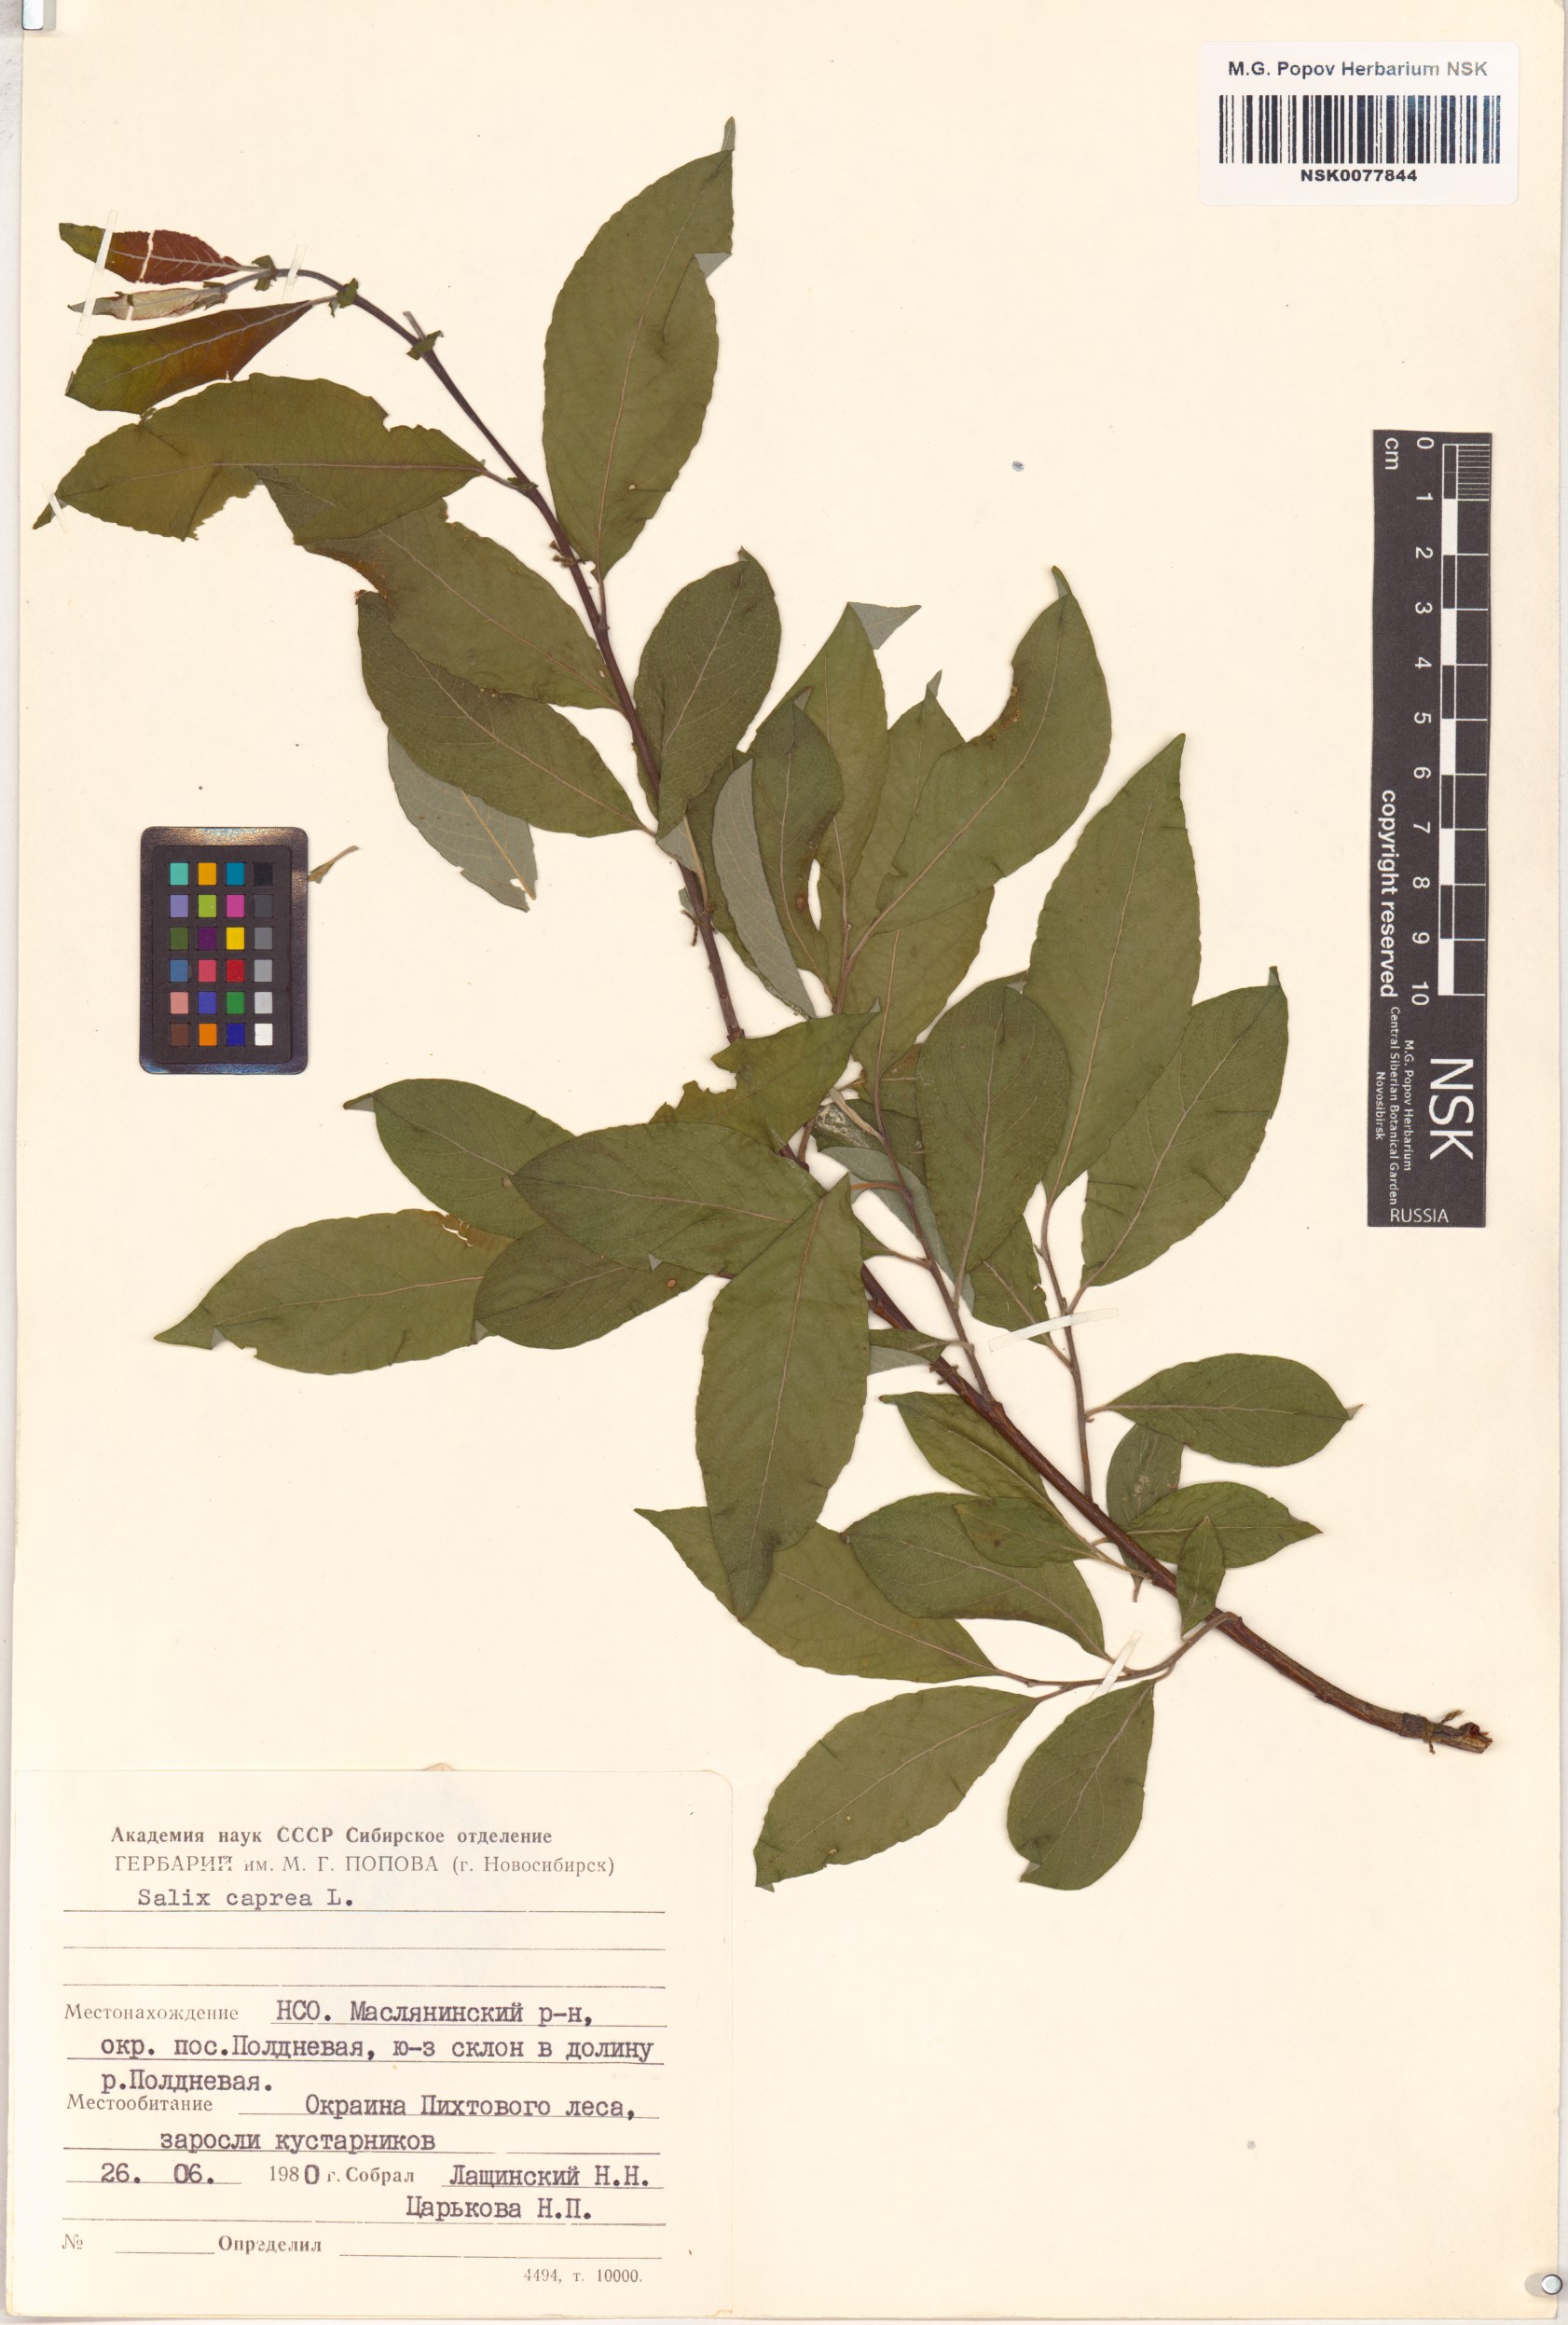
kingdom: Plantae
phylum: Tracheophyta
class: Magnoliopsida
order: Malpighiales
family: Salicaceae
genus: Salix
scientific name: Salix caprea
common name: Goat willow
